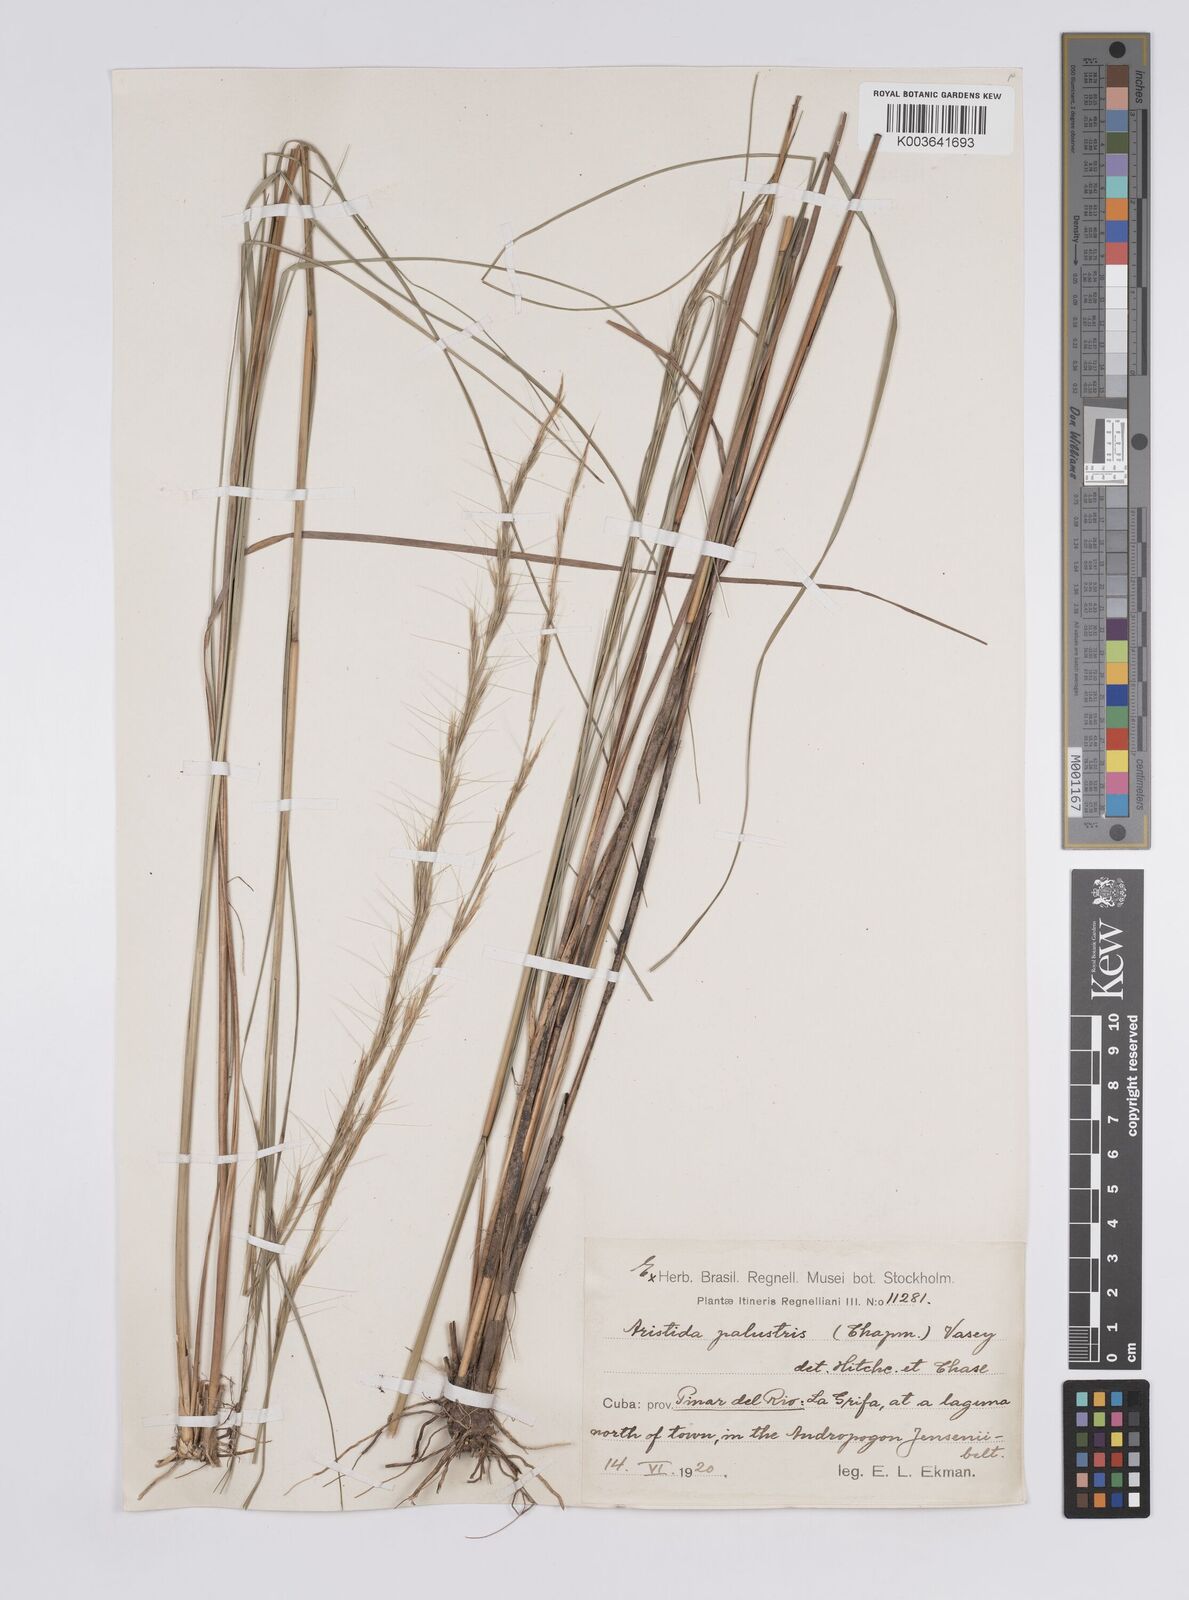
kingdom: Plantae
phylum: Tracheophyta
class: Liliopsida
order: Poales
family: Poaceae
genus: Aristida
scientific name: Aristida purpurascens
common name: Arrow-feather
